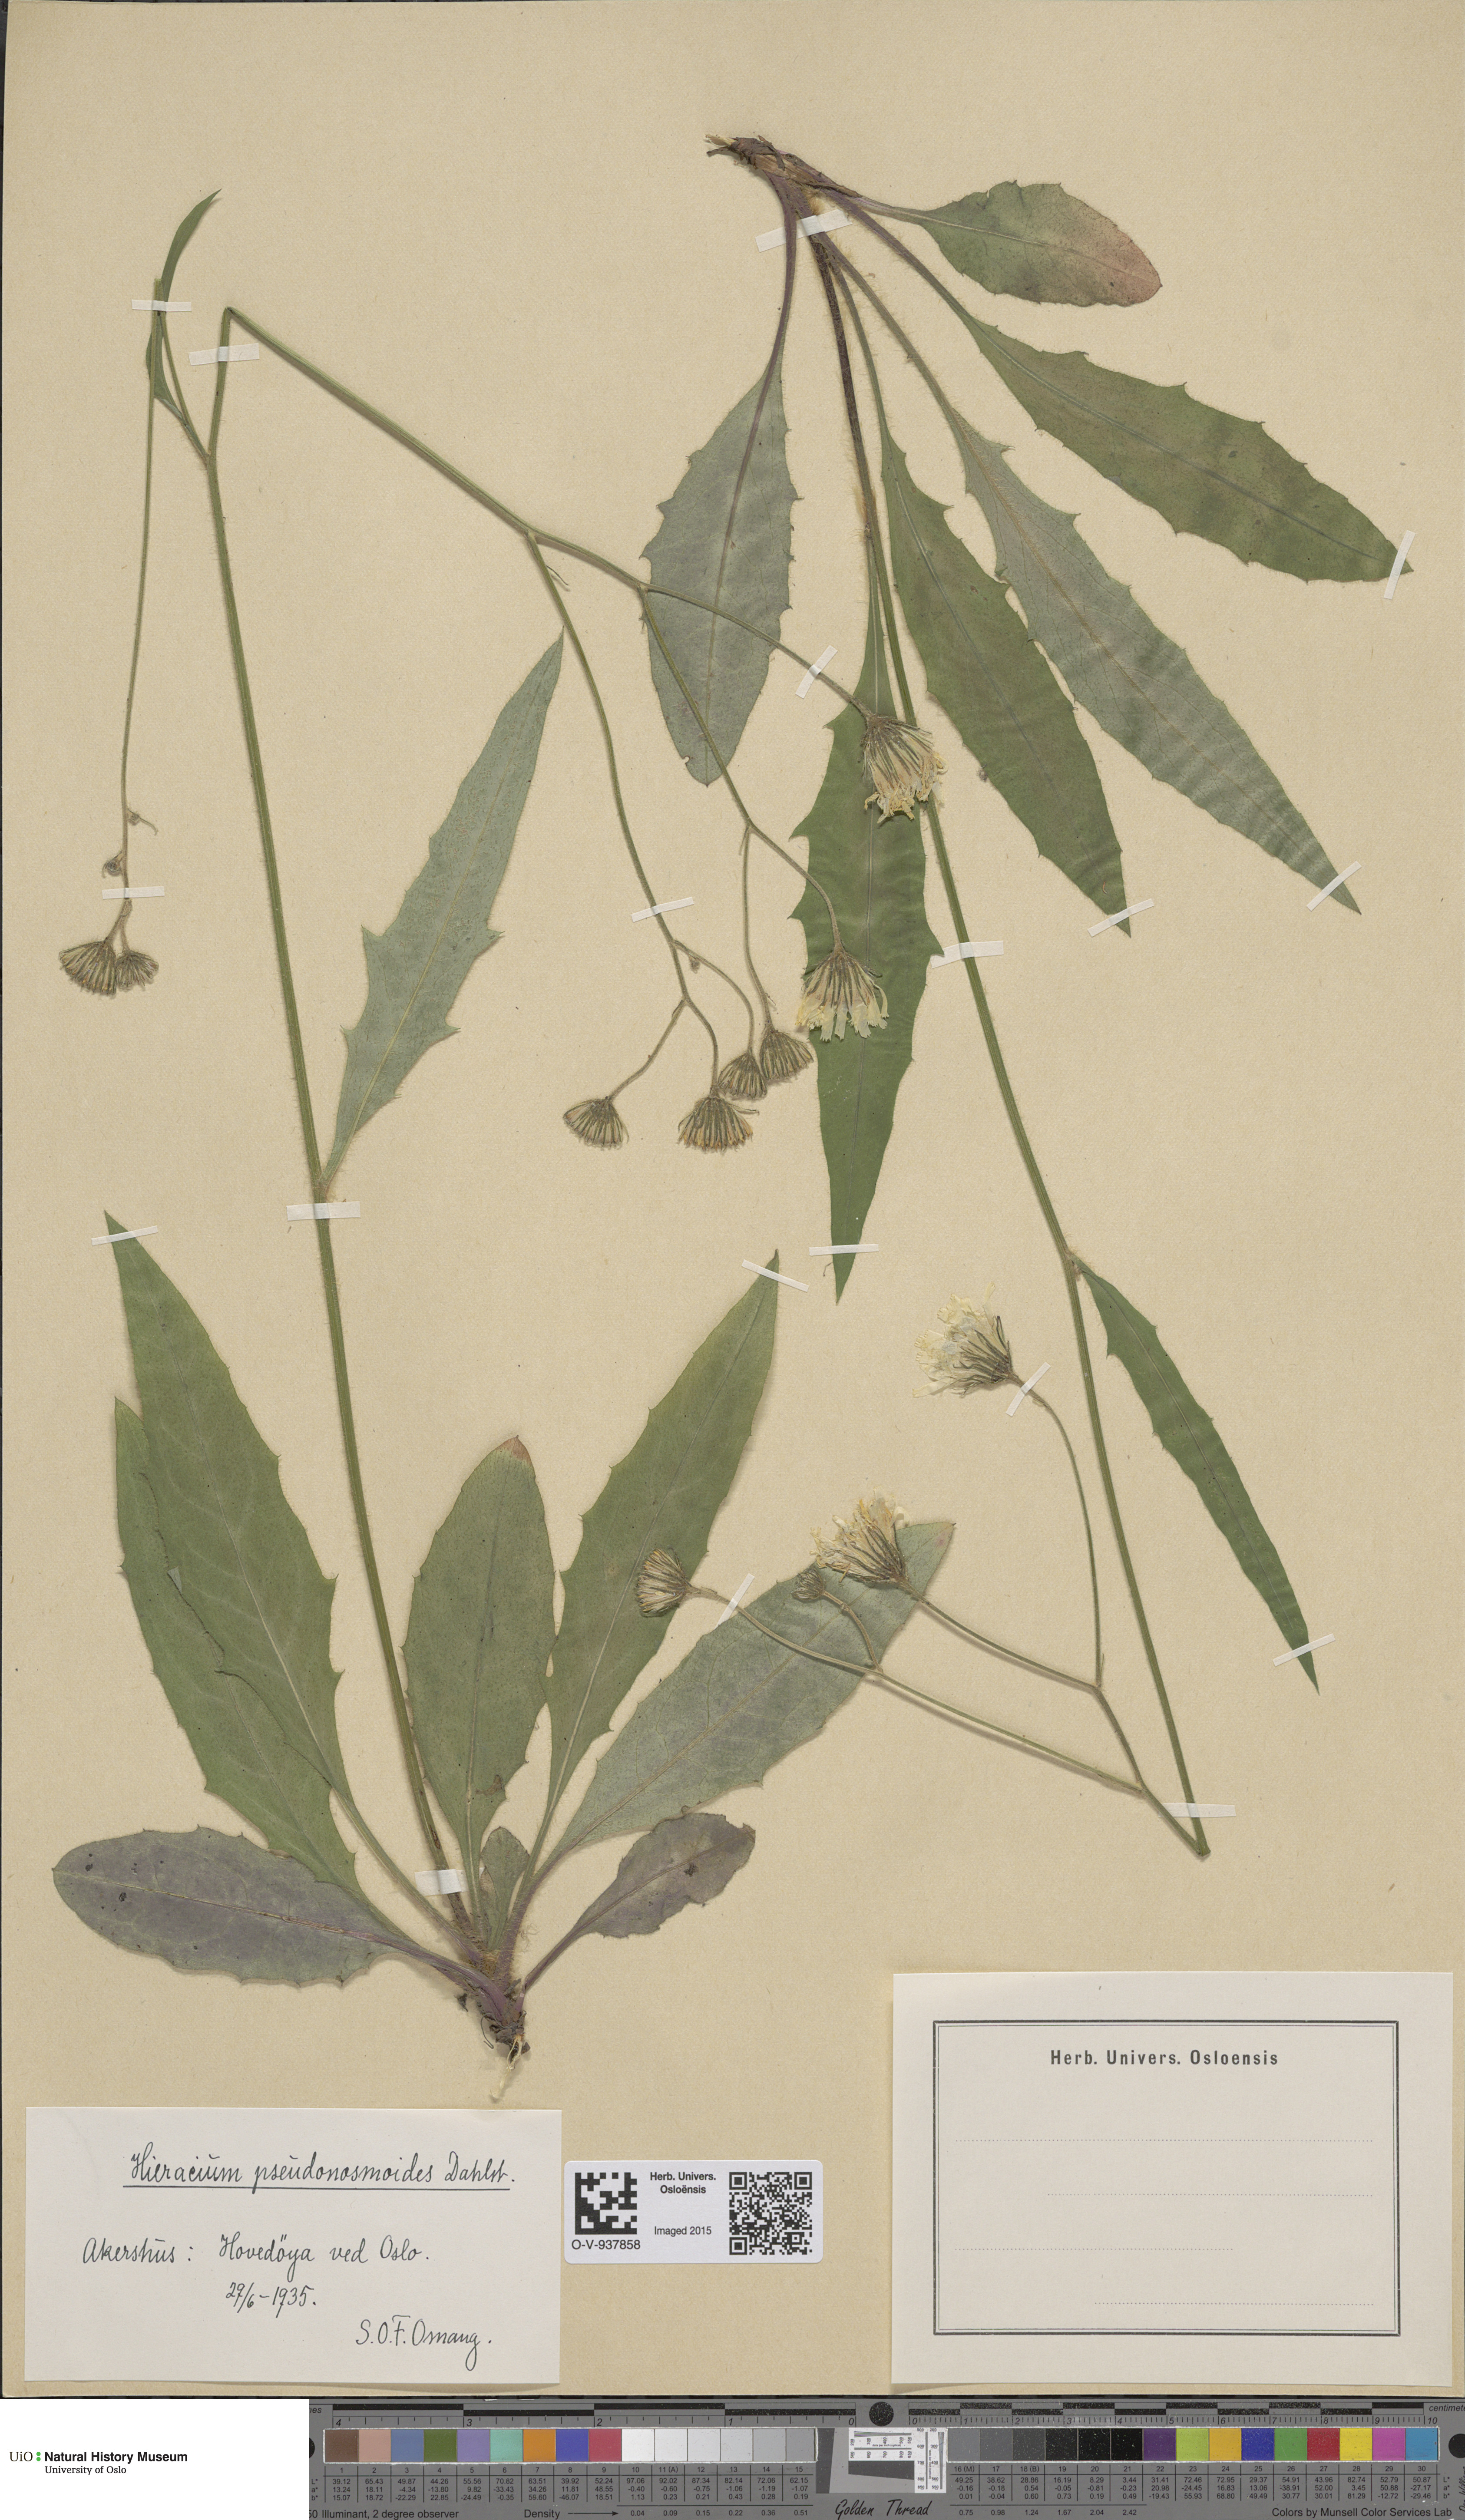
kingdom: Plantae
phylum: Tracheophyta
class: Magnoliopsida
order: Asterales
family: Asteraceae
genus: Hieracium
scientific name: Hieracium saxifragum
